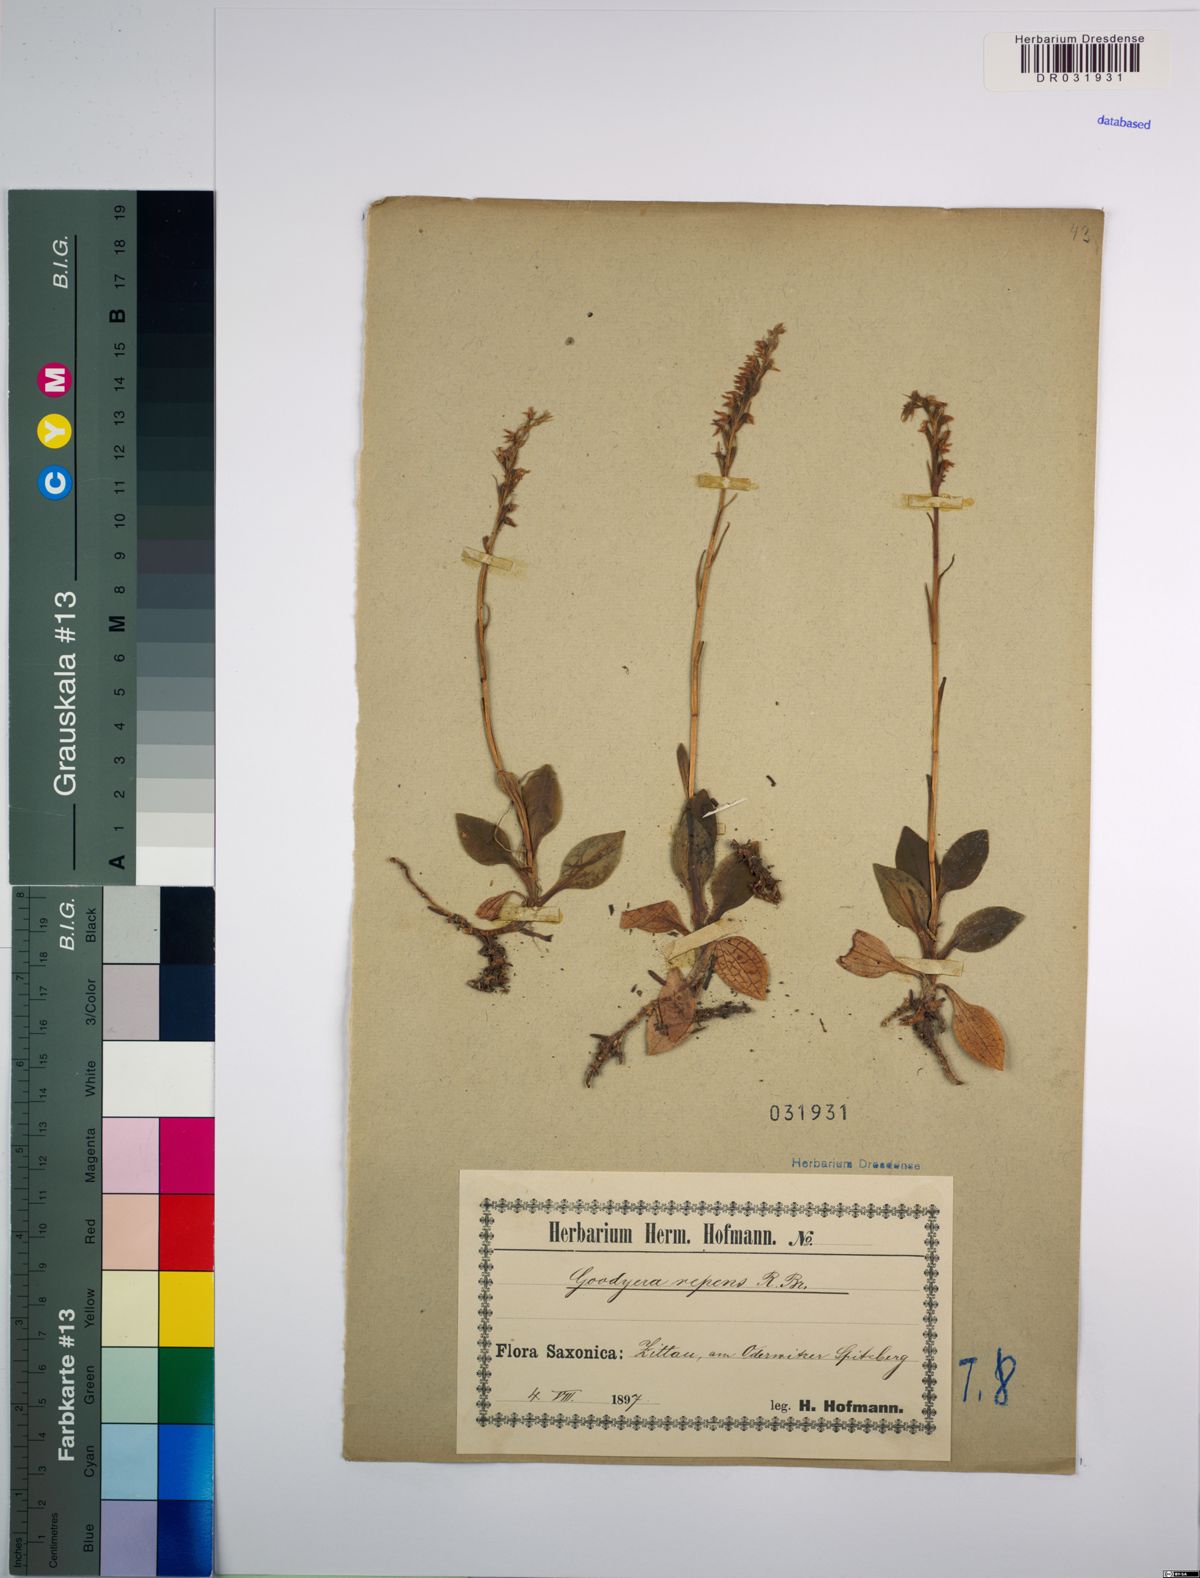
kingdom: Plantae
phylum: Tracheophyta
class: Liliopsida
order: Asparagales
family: Orchidaceae
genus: Goodyera
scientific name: Goodyera repens
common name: Creeping lady's-tresses
